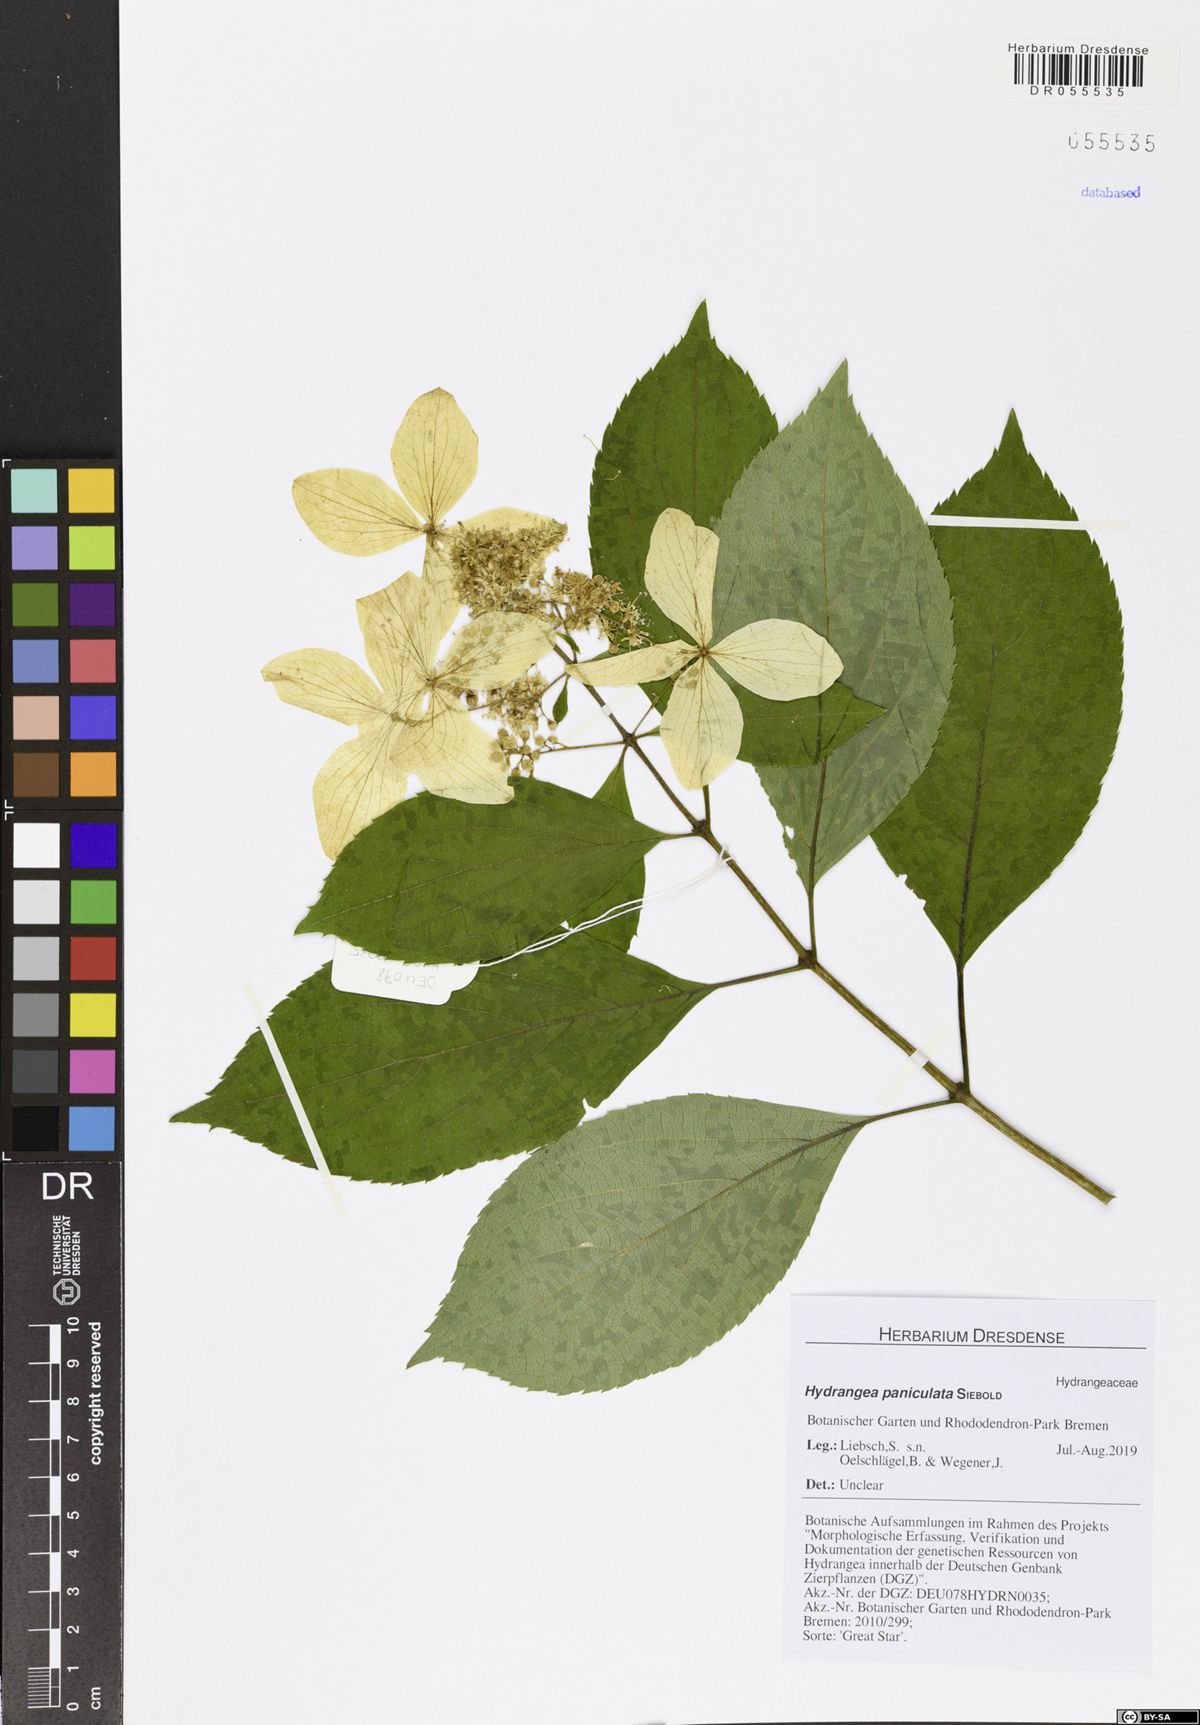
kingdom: Plantae
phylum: Tracheophyta
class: Magnoliopsida
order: Cornales
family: Hydrangeaceae
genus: Hydrangea
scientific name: Hydrangea paniculata
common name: Panicled hydrangea
